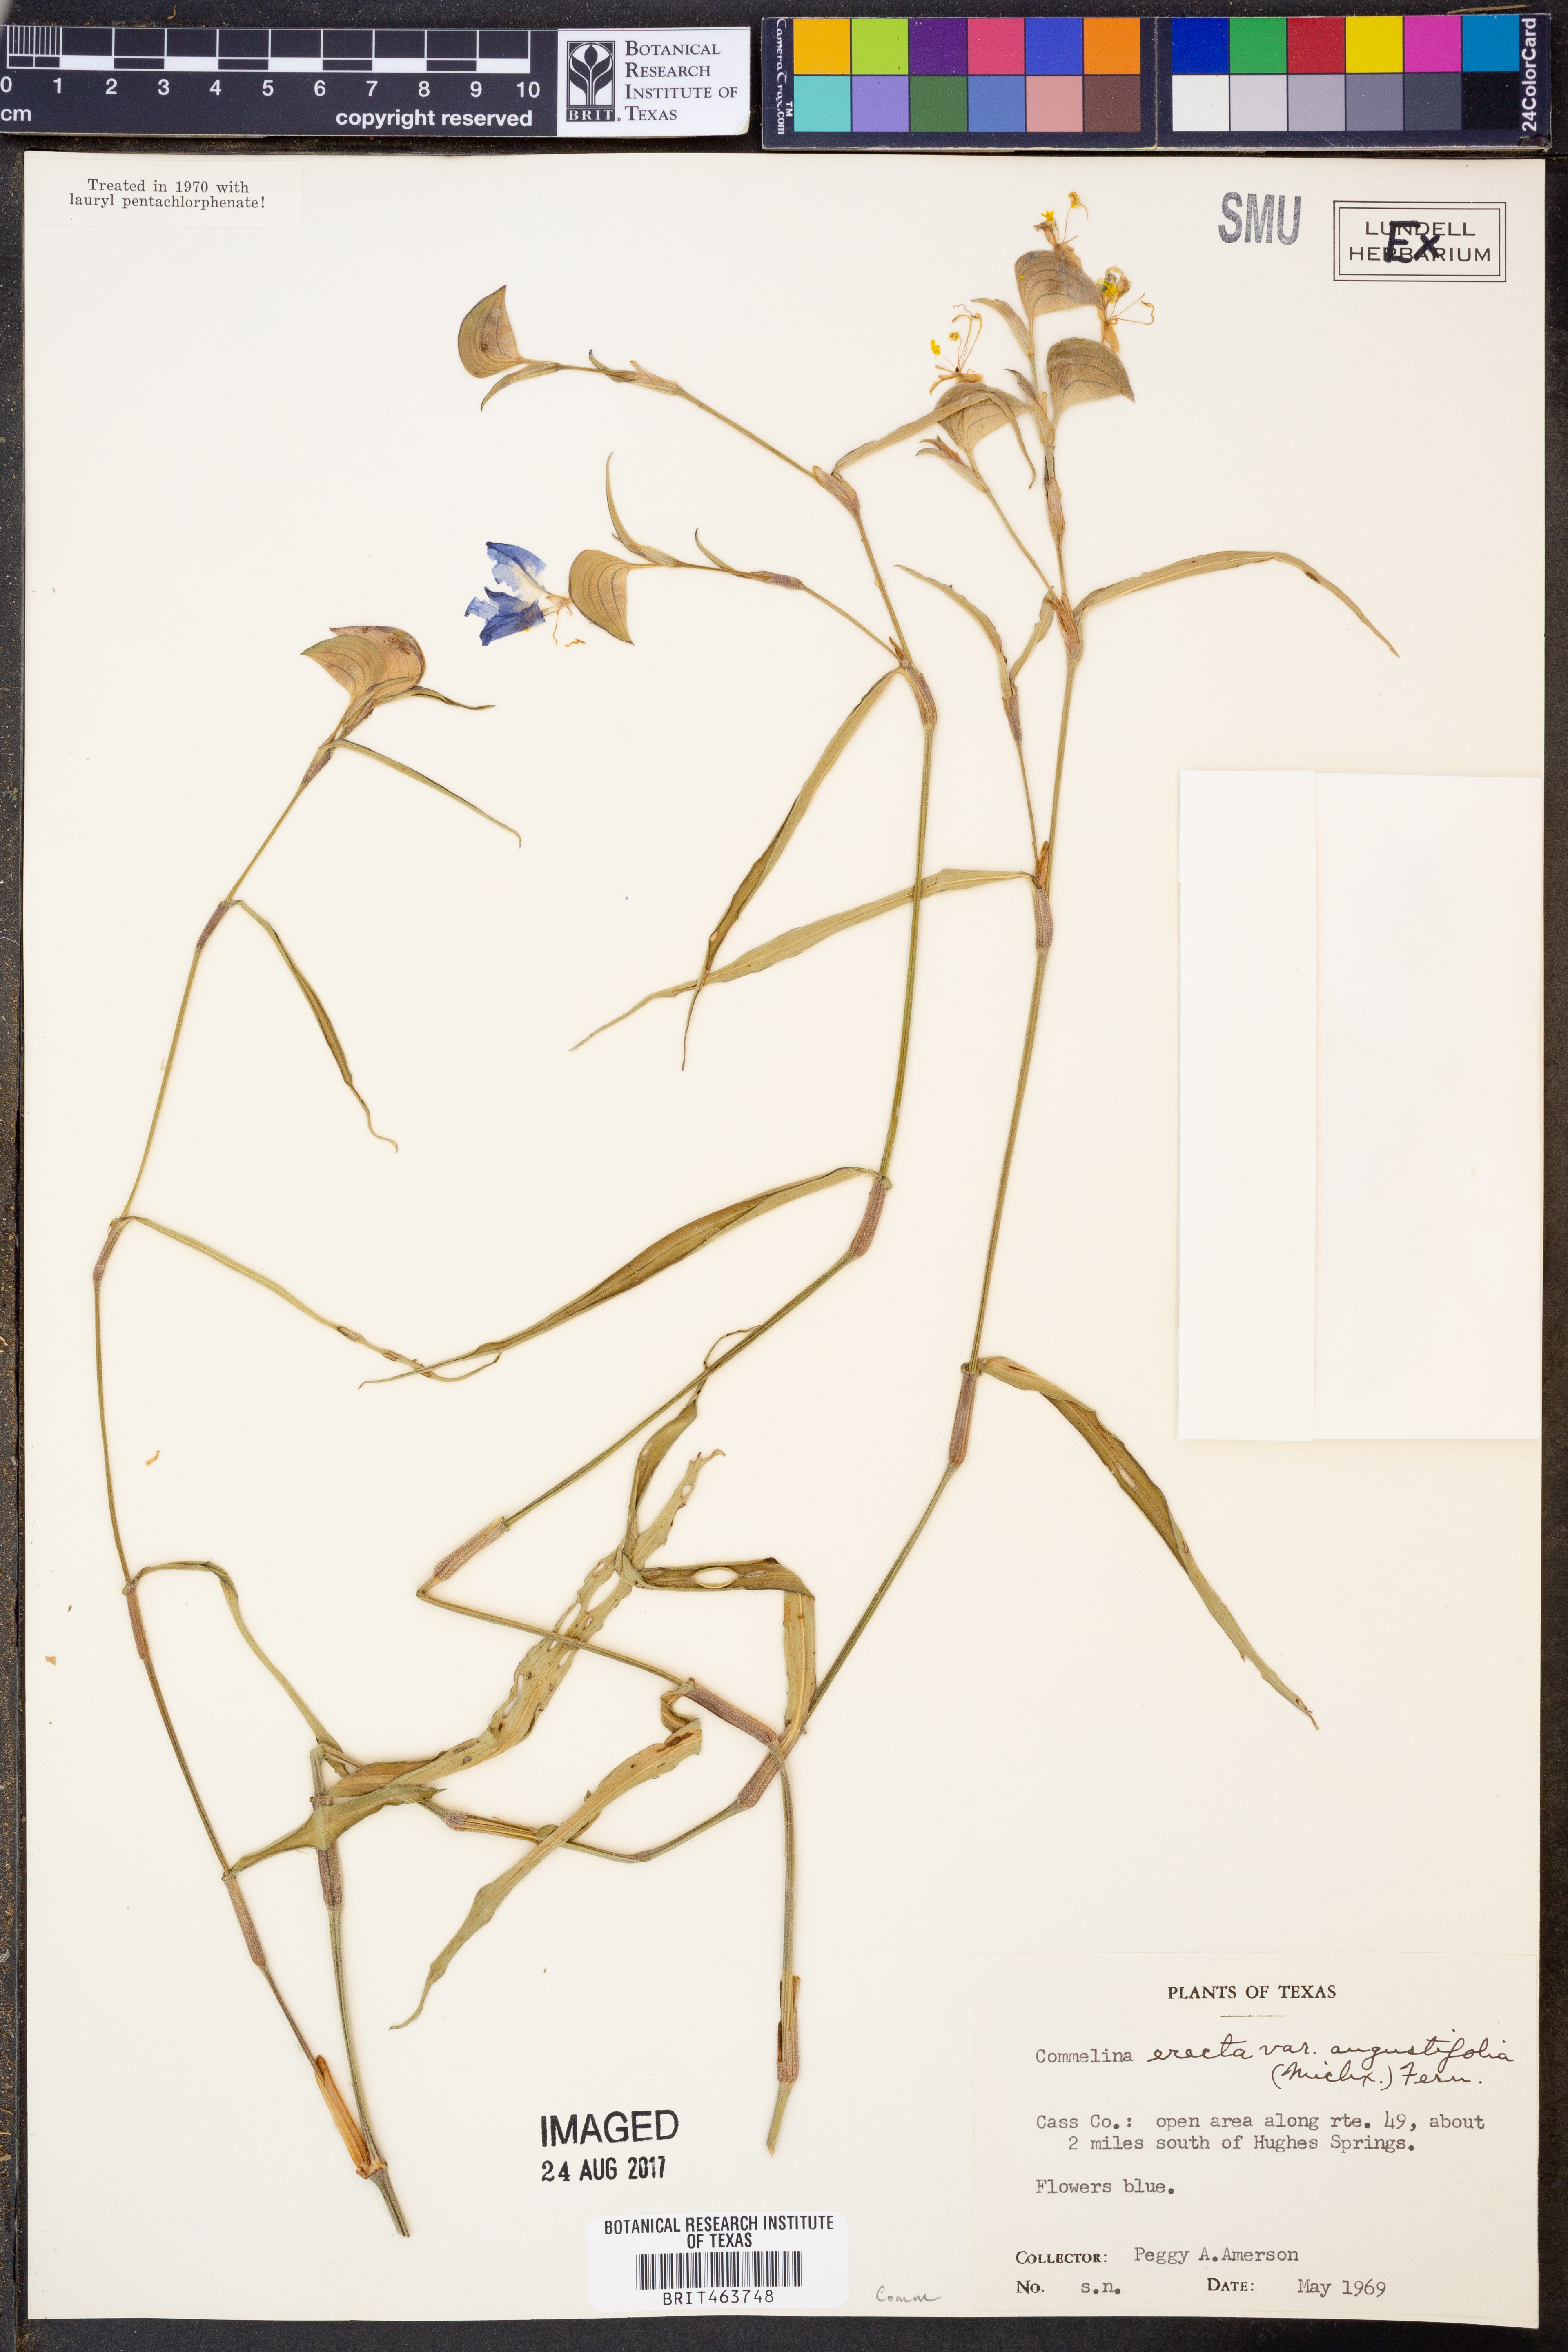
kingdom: Plantae
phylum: Tracheophyta
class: Liliopsida
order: Commelinales
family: Commelinaceae
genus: Commelina
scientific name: Commelina erecta
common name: Blousel blommetjie
